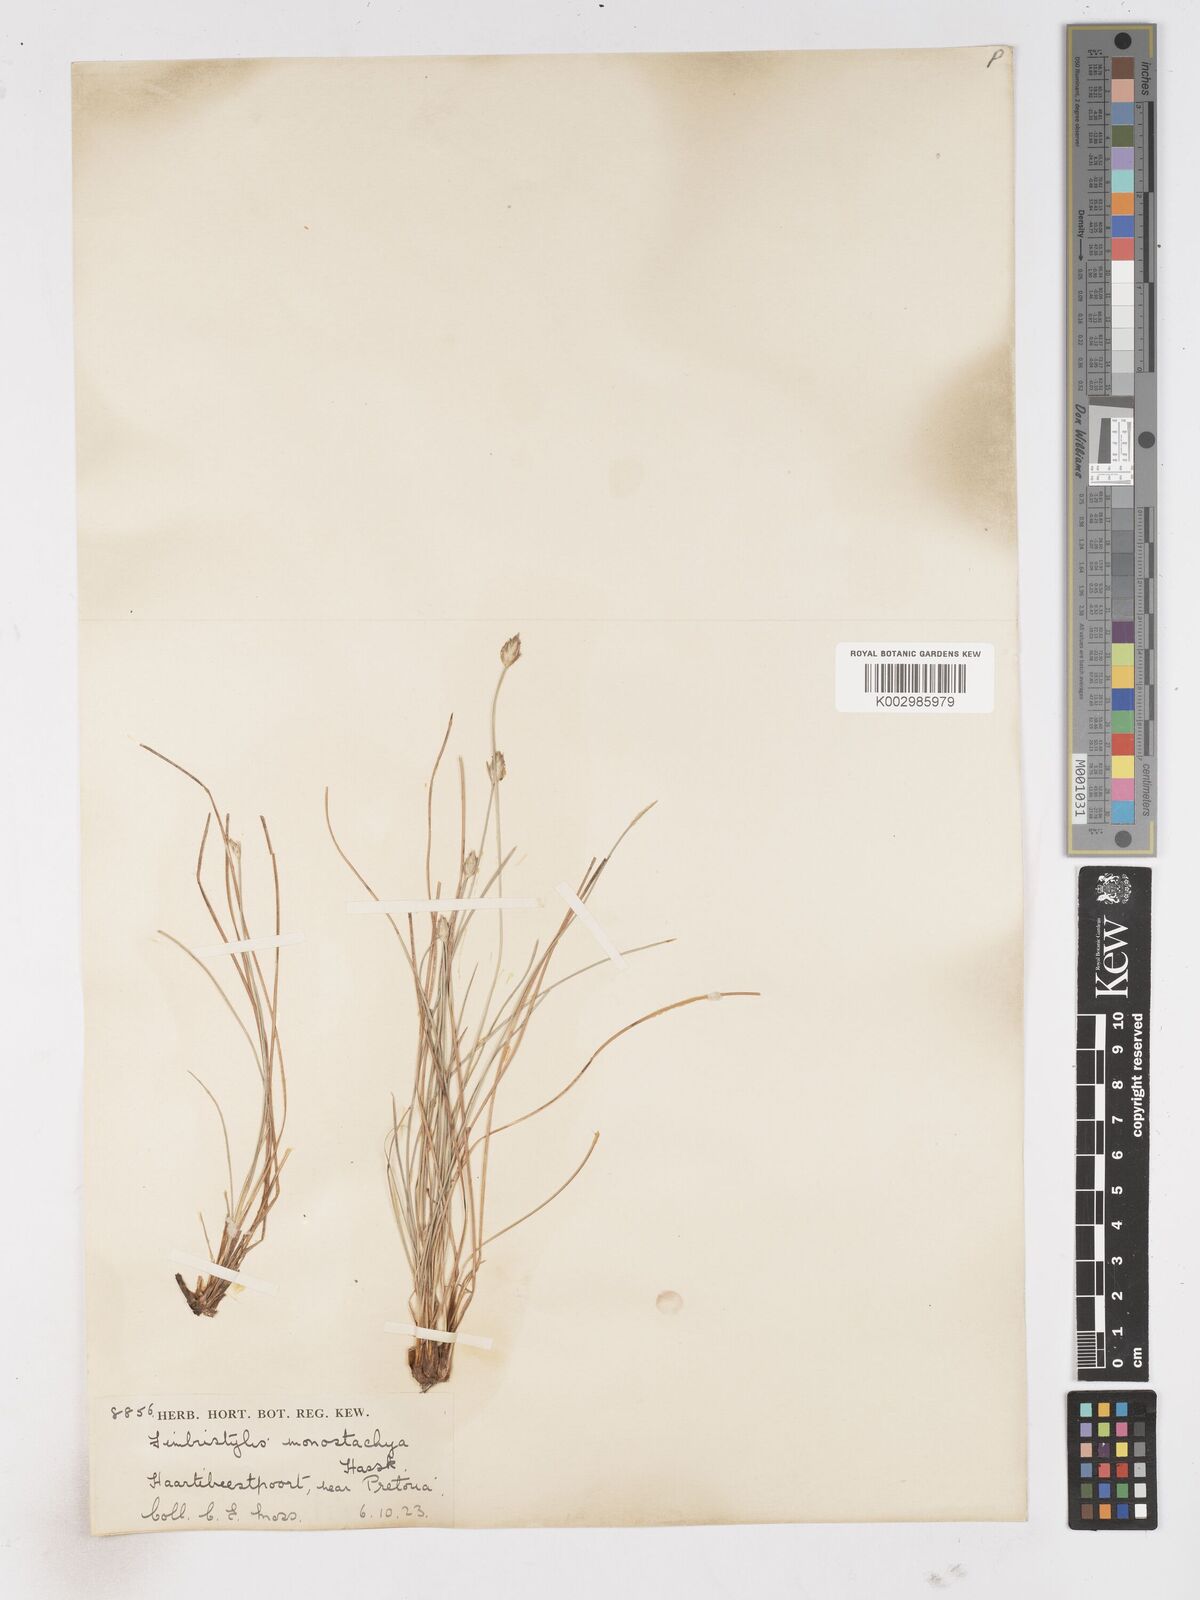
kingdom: Plantae
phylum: Tracheophyta
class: Liliopsida
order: Poales
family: Cyperaceae
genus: Abildgaardia
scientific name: Abildgaardia ovata
